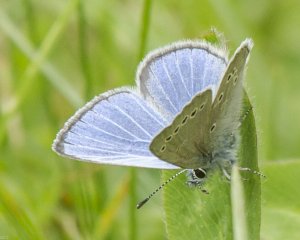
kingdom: Animalia
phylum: Arthropoda
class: Insecta
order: Lepidoptera
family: Lycaenidae
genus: Glaucopsyche
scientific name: Glaucopsyche lygdamus
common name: Silvery Blue
